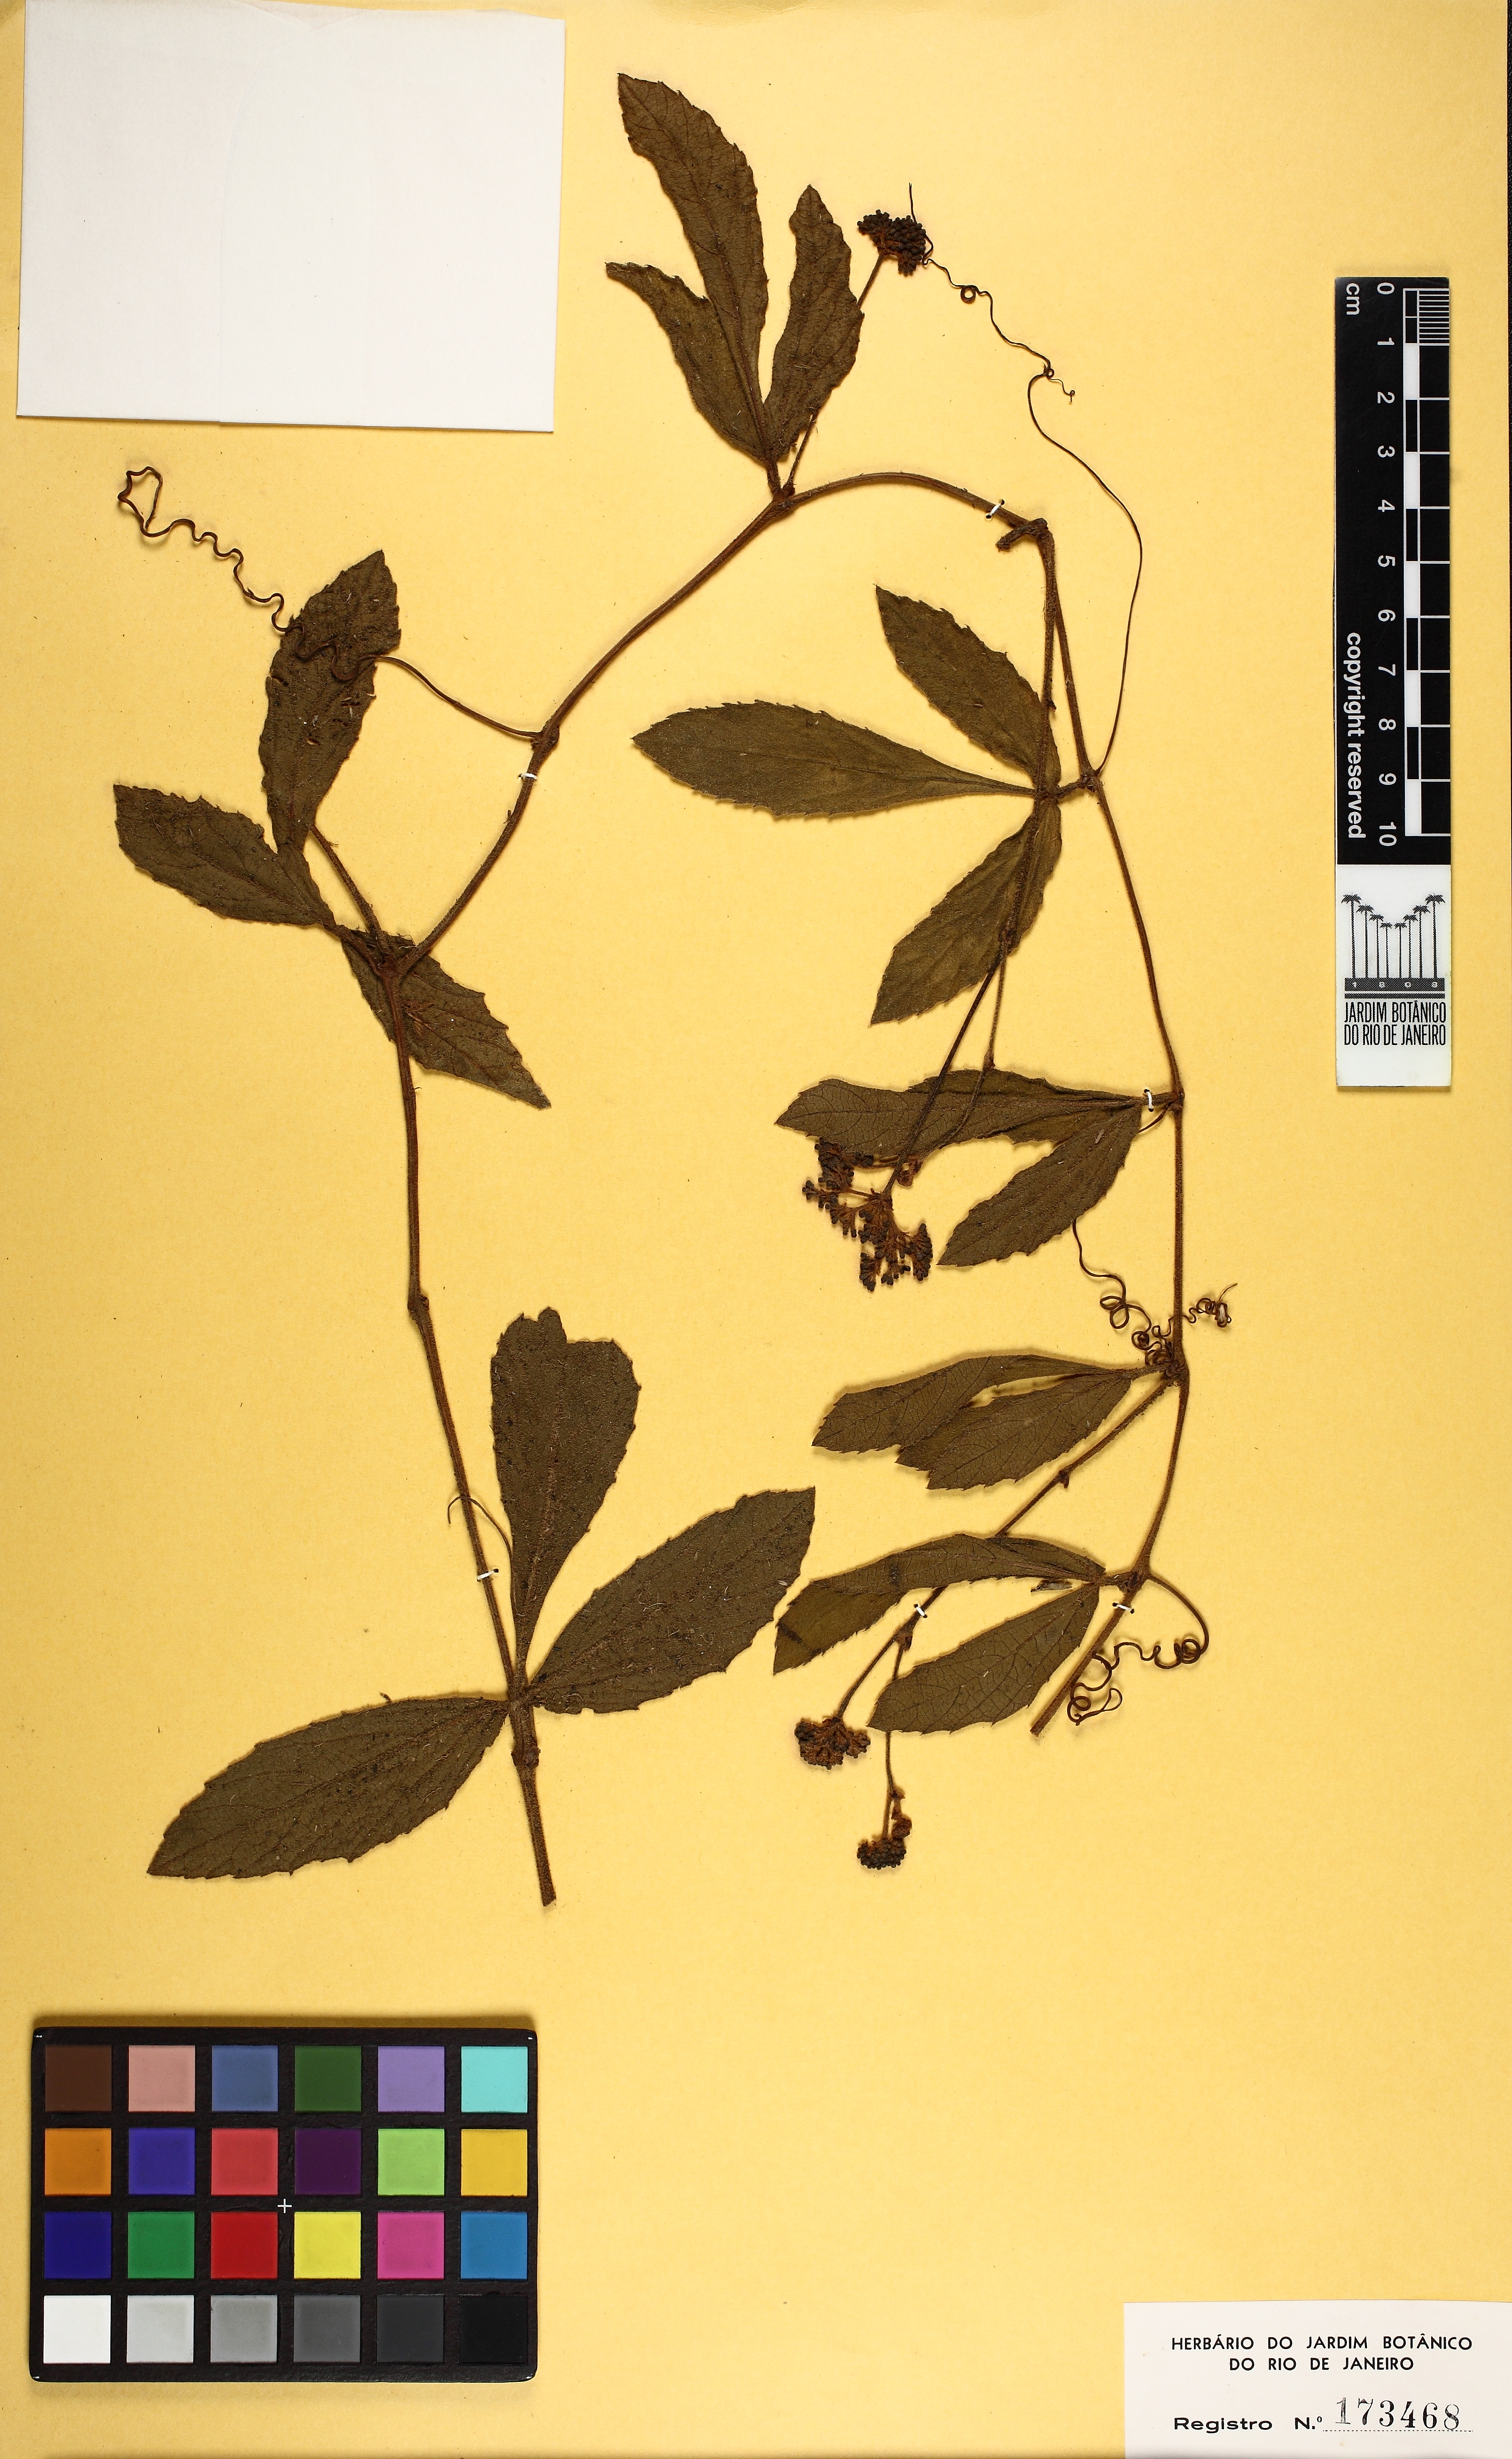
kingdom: Plantae
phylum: Tracheophyta
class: Magnoliopsida
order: Vitales
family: Vitaceae
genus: Cissus
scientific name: Cissus erosa
